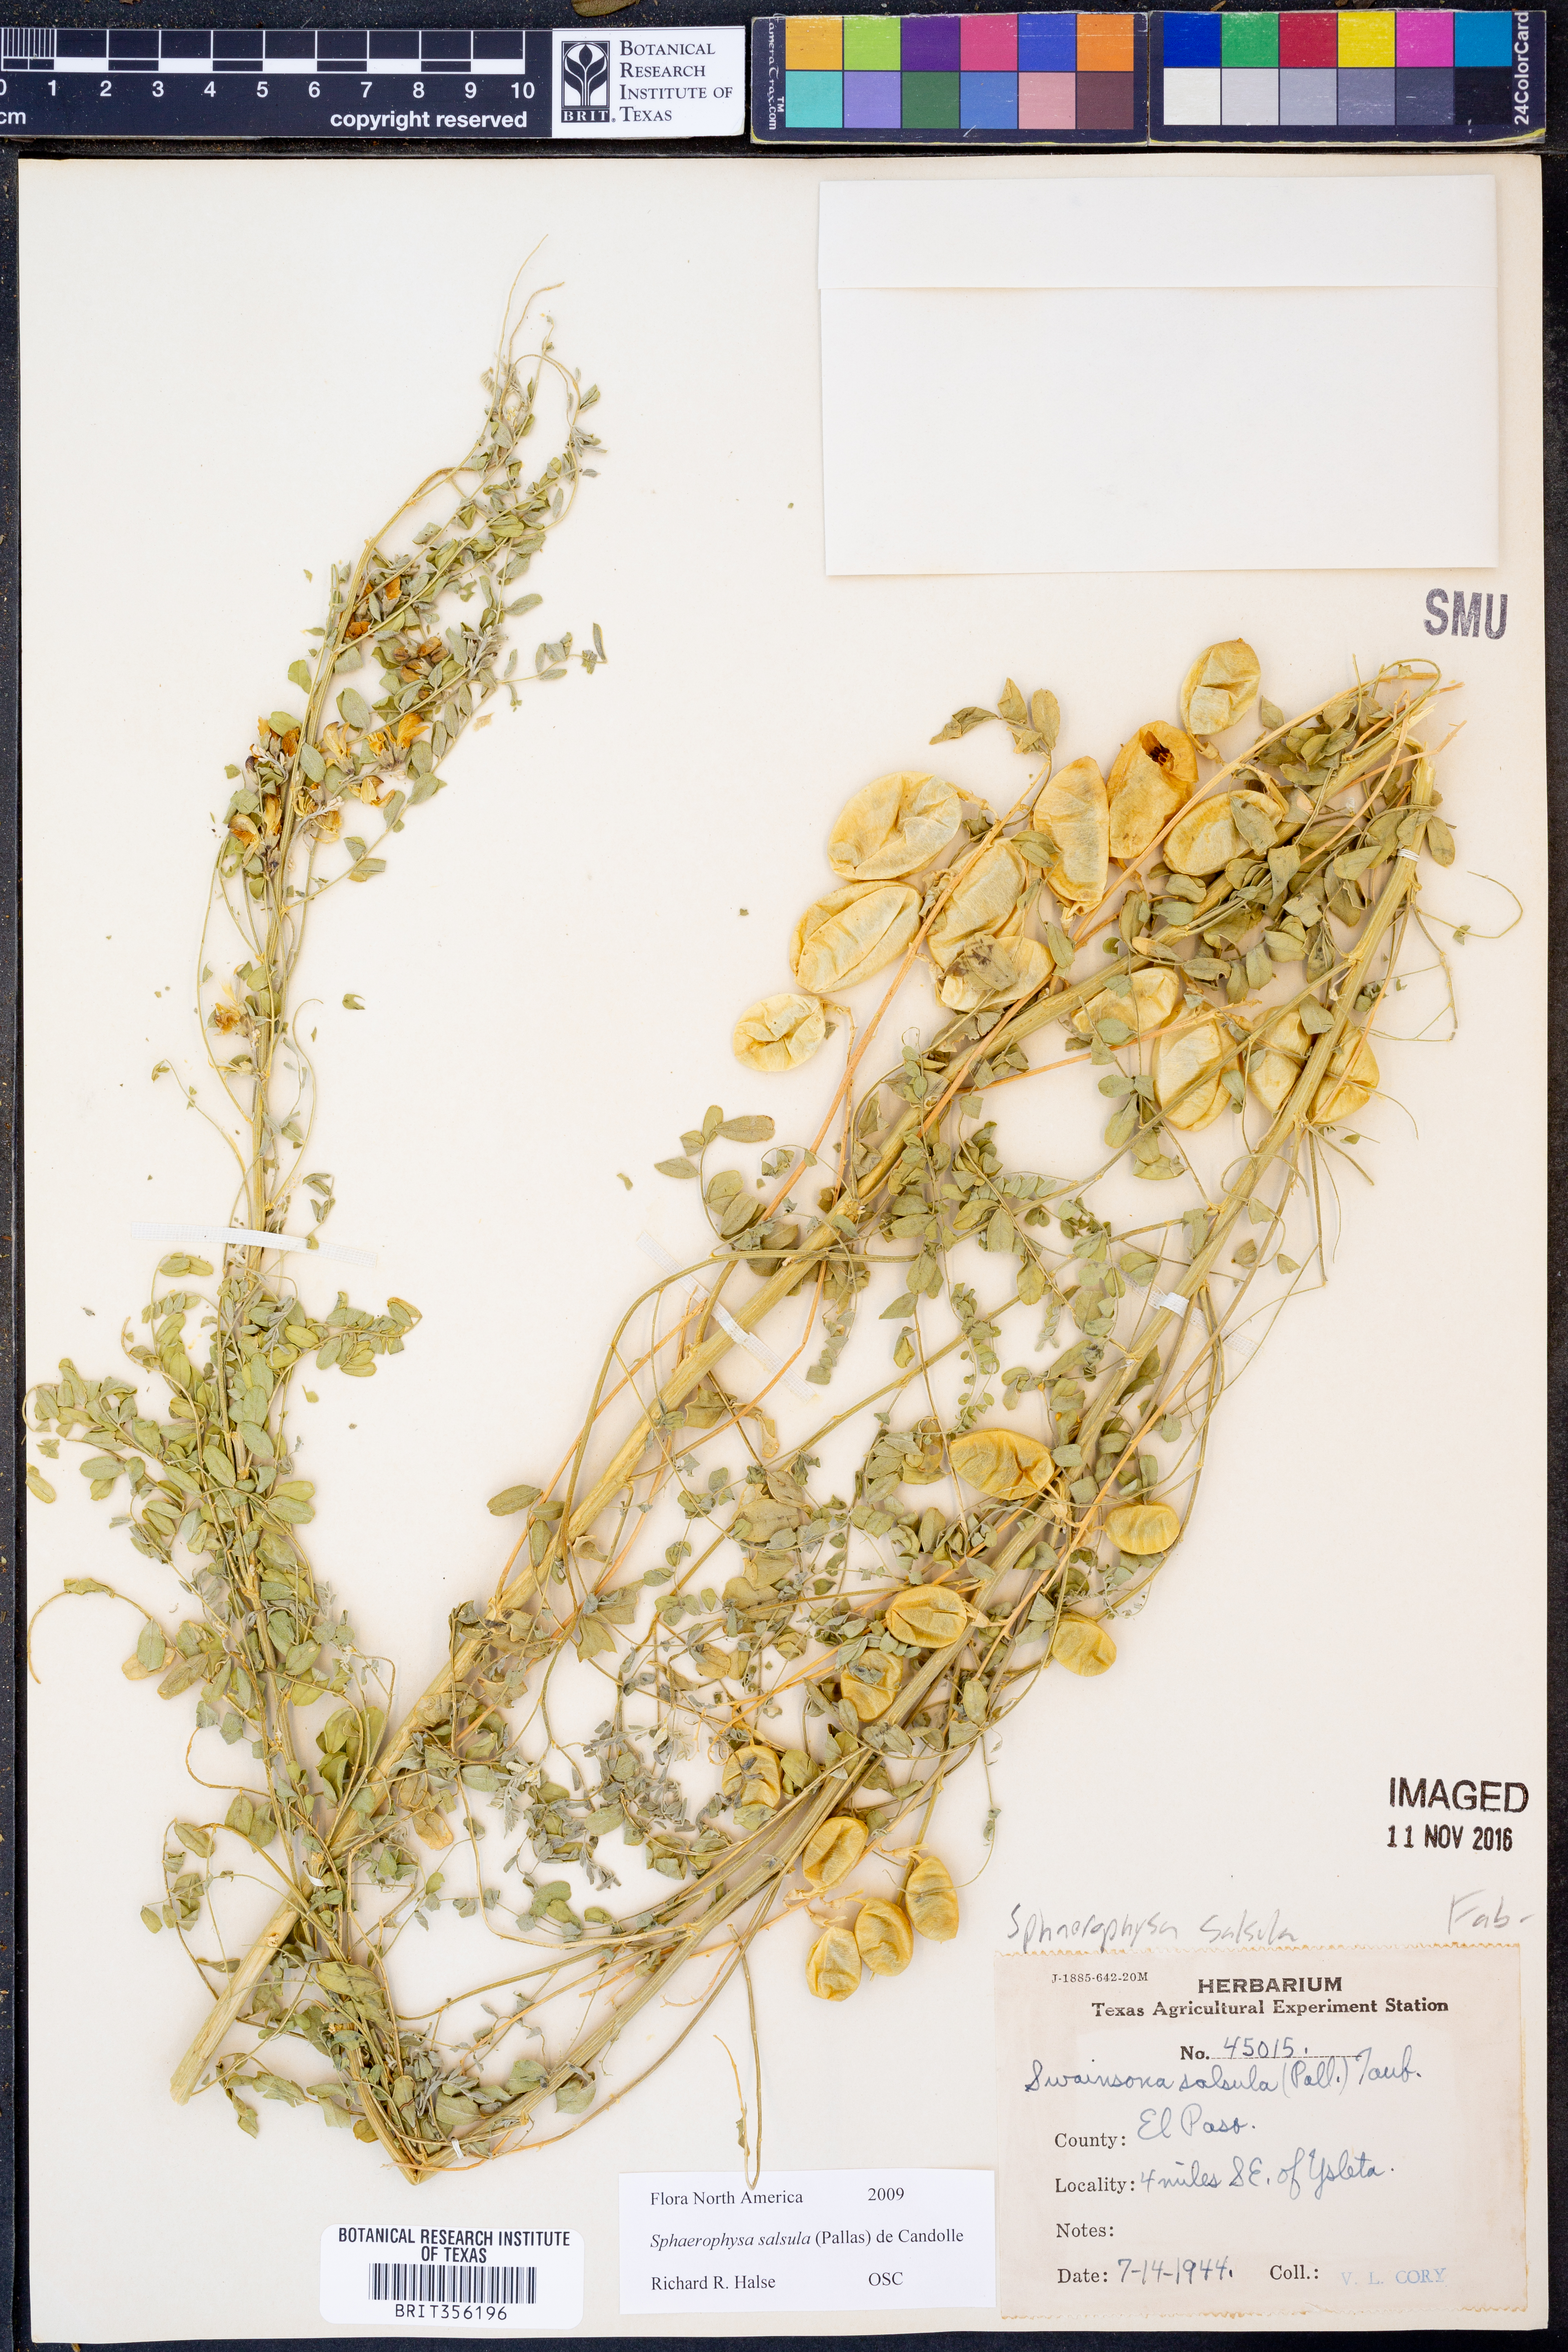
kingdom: Plantae
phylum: Tracheophyta
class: Magnoliopsida
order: Fabales
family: Fabaceae
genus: Sphaerophysa
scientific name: Sphaerophysa salsula
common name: Alkali swainsonpea
